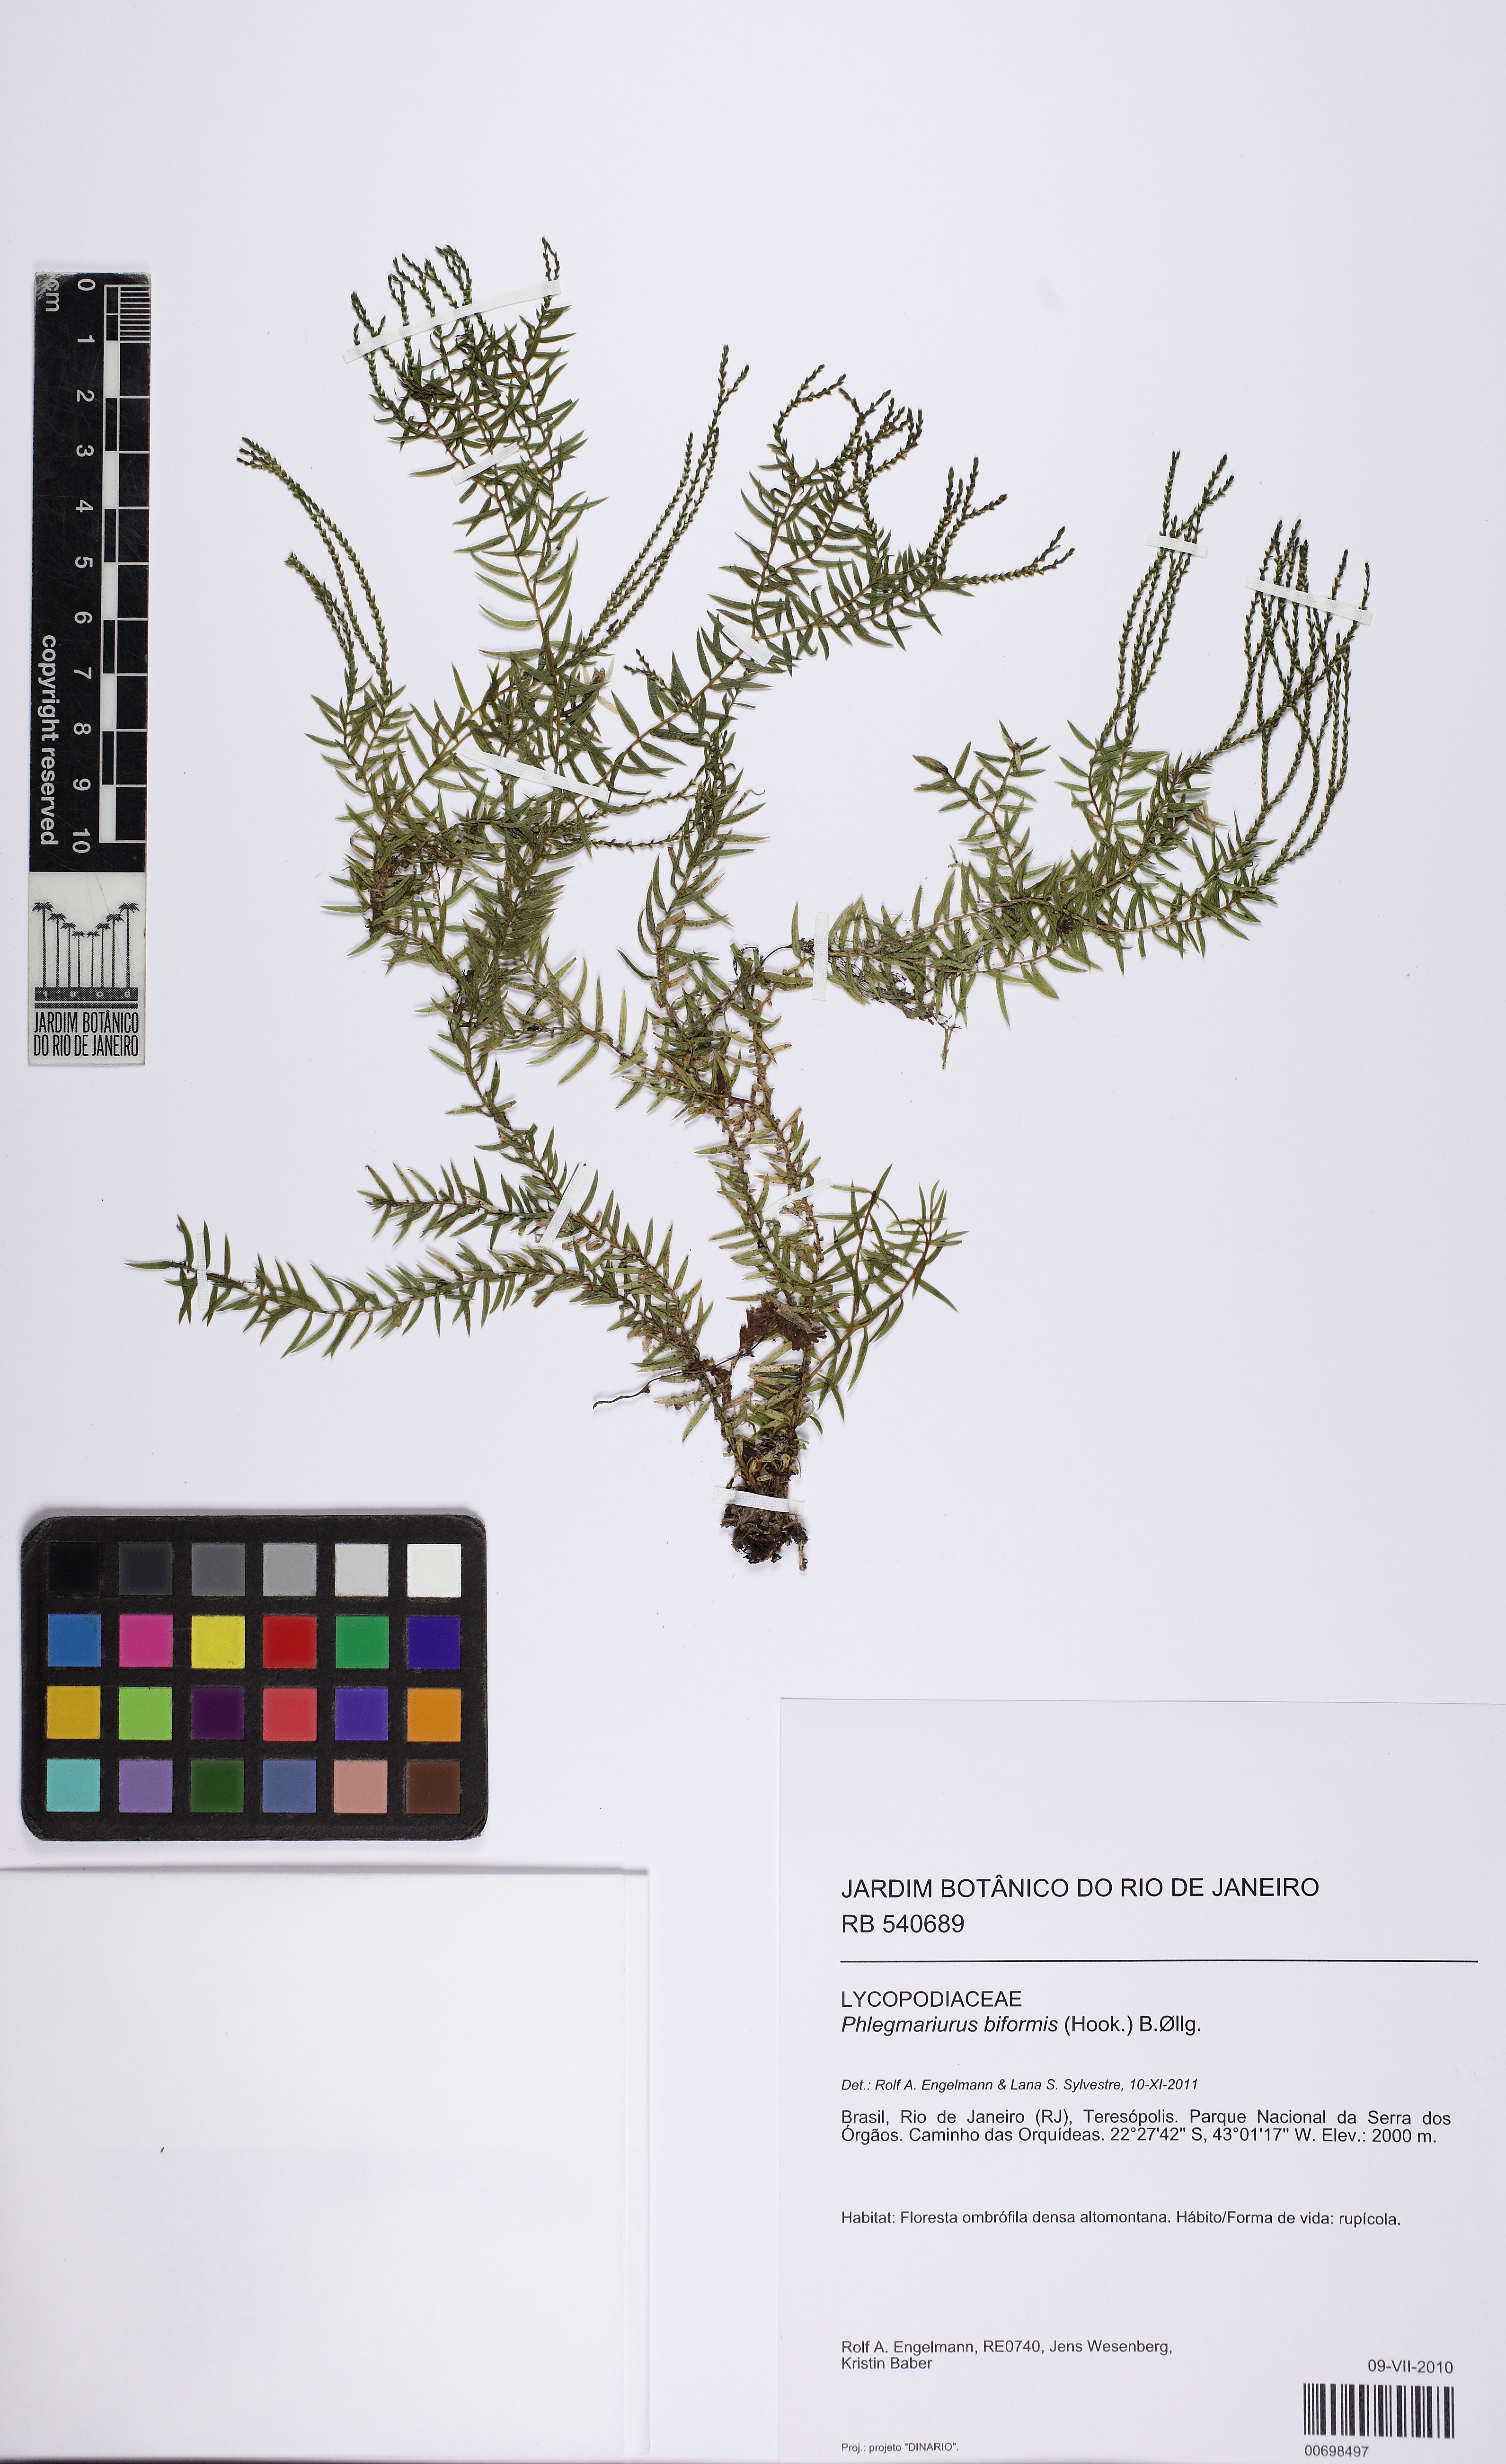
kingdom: Plantae
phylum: Tracheophyta
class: Lycopodiopsida
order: Lycopodiales
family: Lycopodiaceae
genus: Phlegmariurus
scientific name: Phlegmariurus biformis
